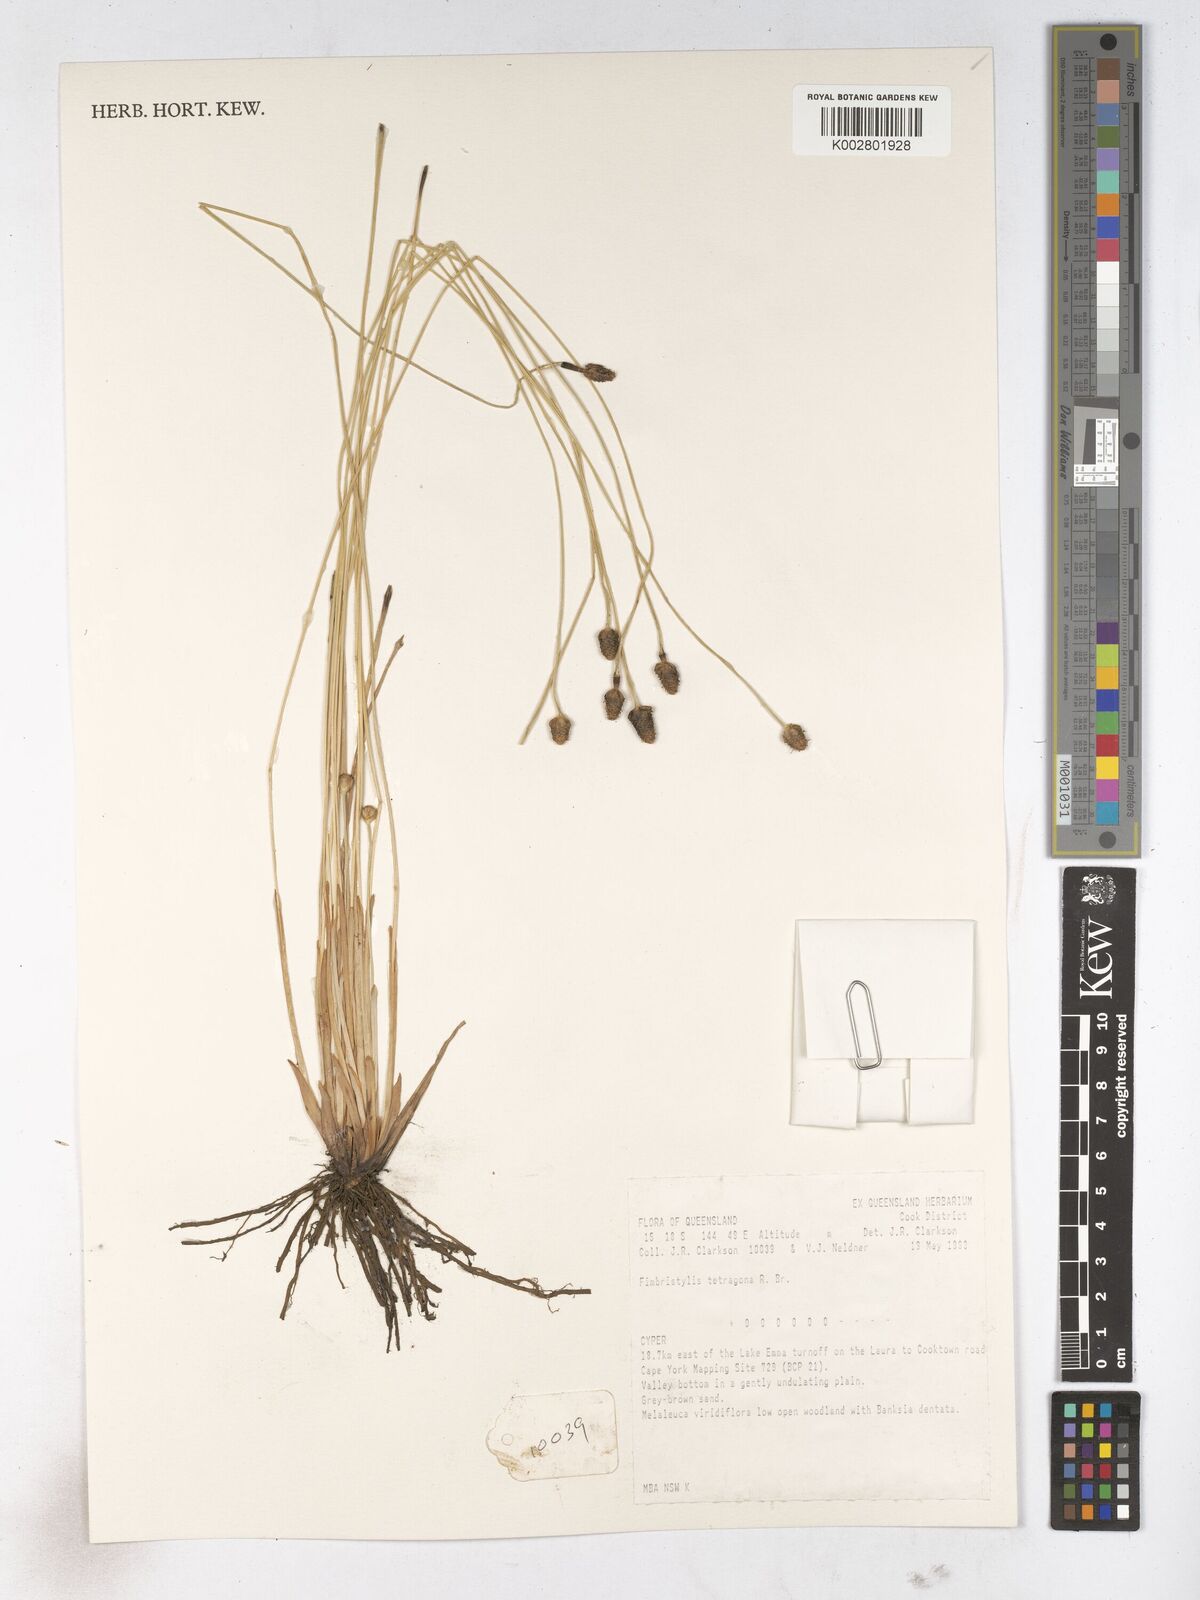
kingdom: Plantae
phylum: Tracheophyta
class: Liliopsida
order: Poales
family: Cyperaceae
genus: Fimbristylis
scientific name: Fimbristylis tetragona
